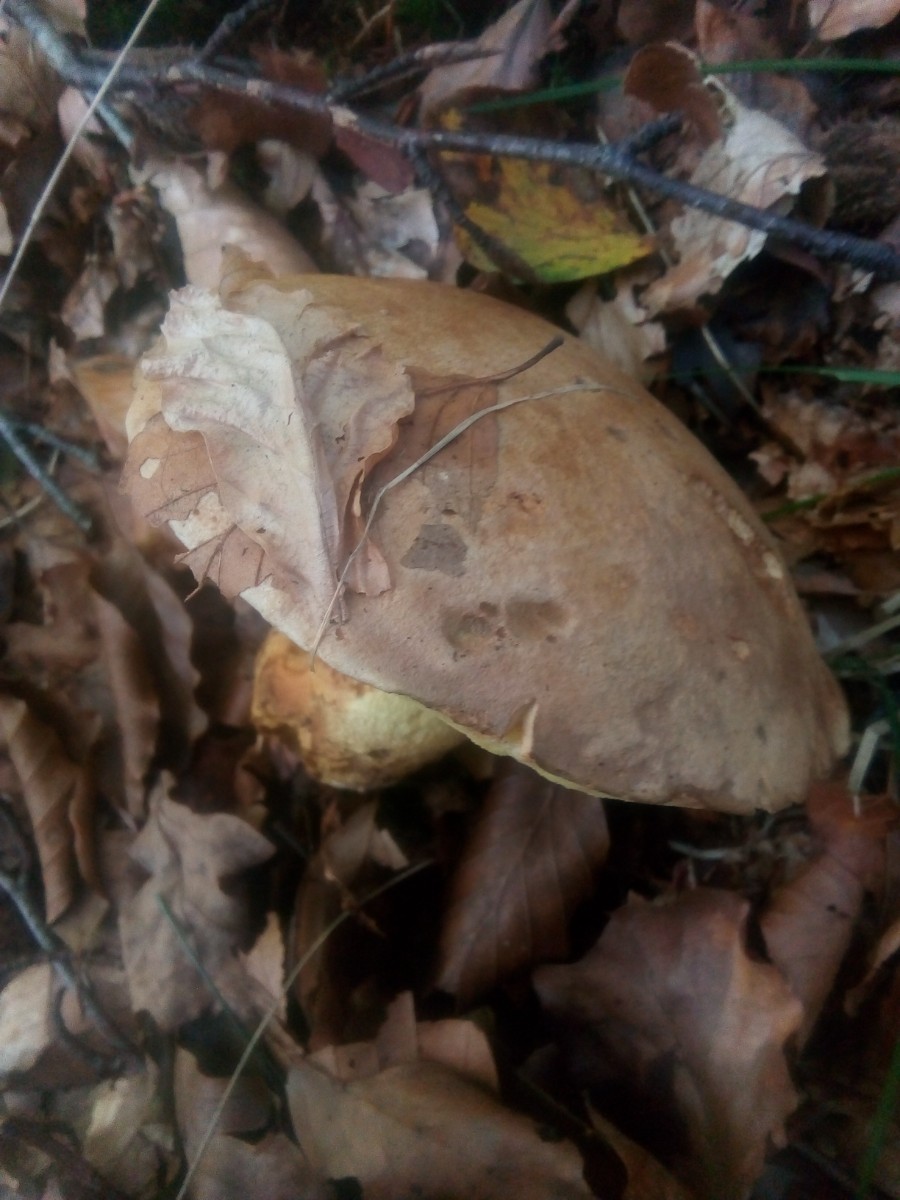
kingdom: Fungi
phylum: Basidiomycota
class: Agaricomycetes
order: Boletales
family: Boletaceae
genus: Butyriboletus
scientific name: Butyriboletus appendiculatus
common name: tenstokket rørhat
